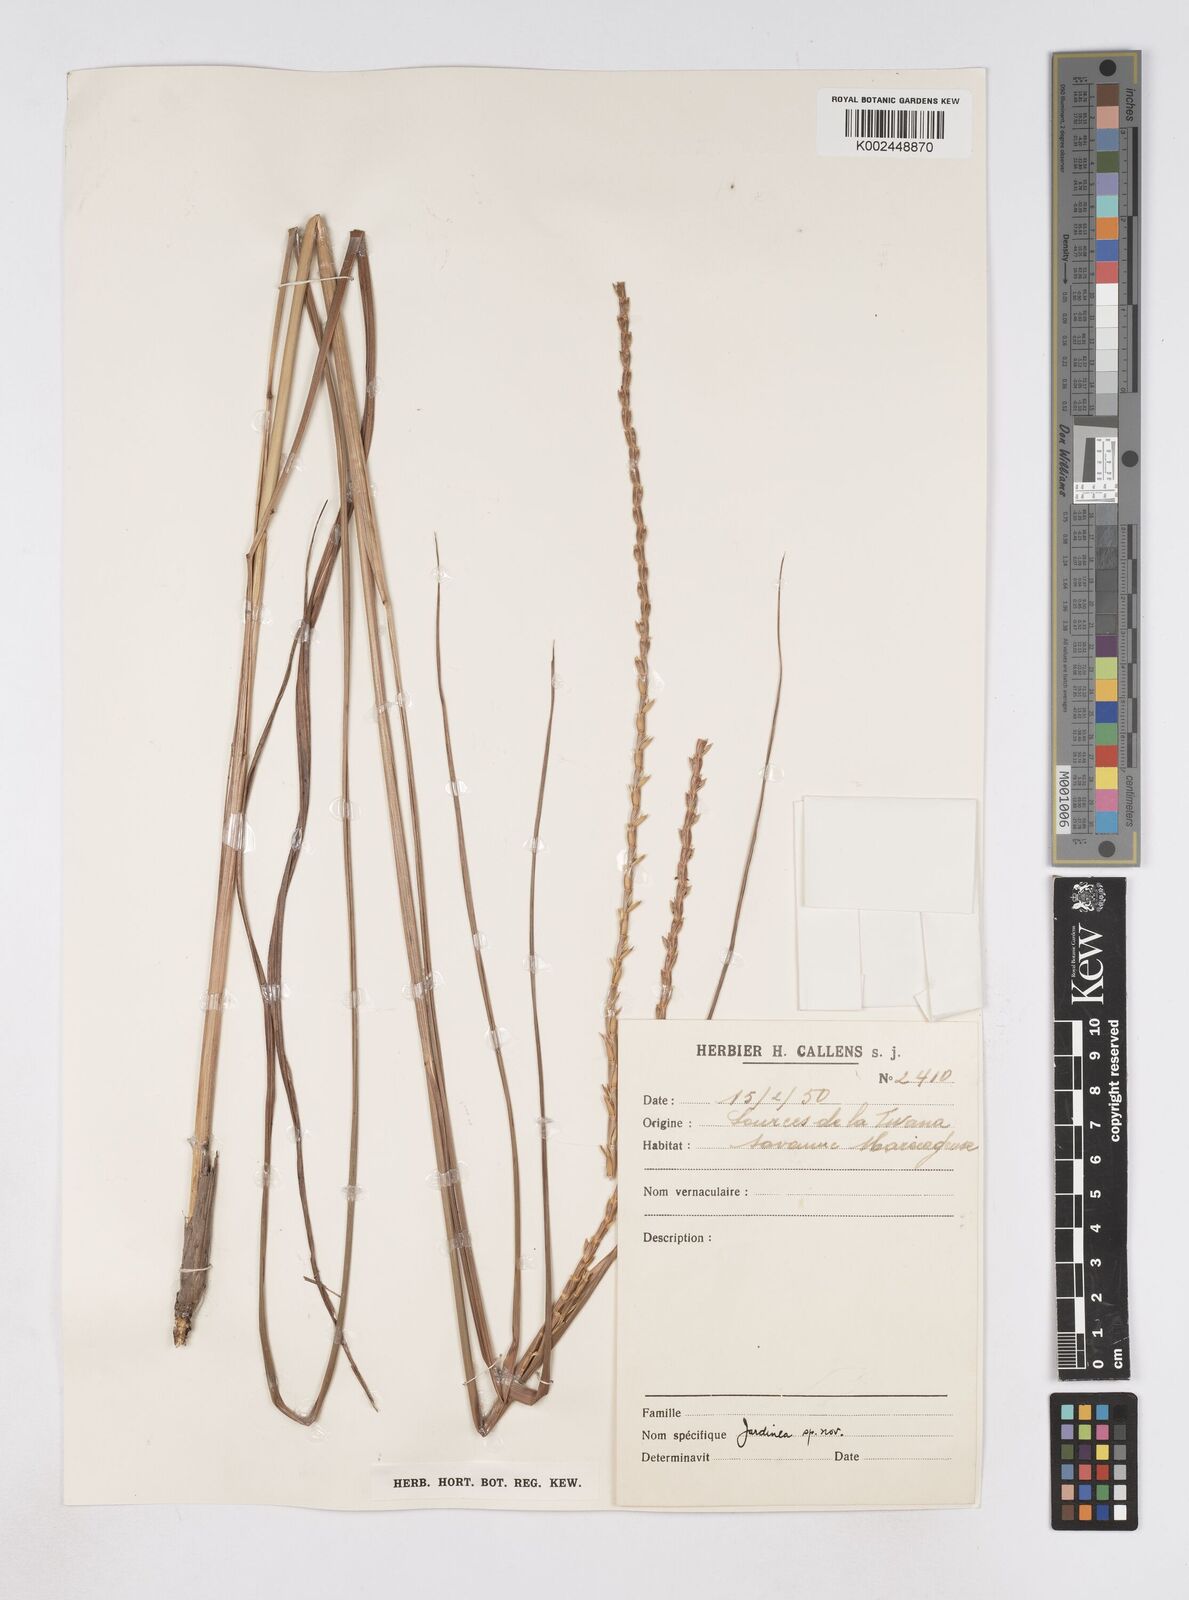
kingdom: Plantae
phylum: Tracheophyta
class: Liliopsida
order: Poales
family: Poaceae
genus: Phacelurus
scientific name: Phacelurus gabonensis
